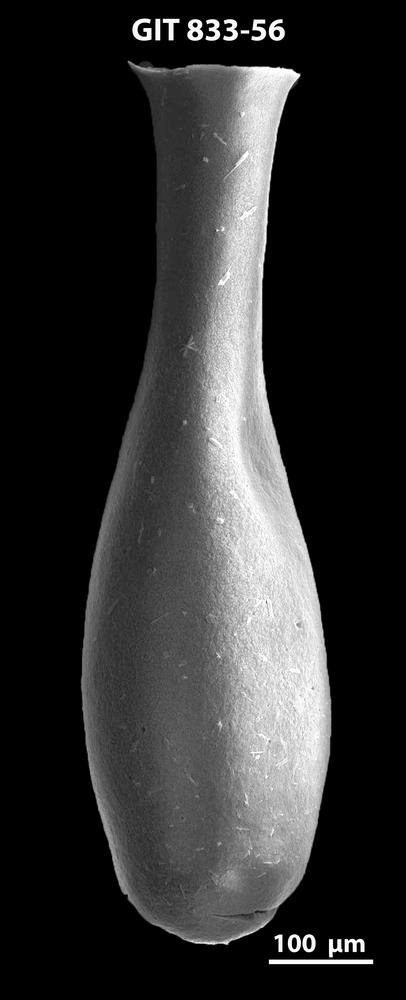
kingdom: Animalia
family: Lagenochitinidae
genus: Lagenochitina
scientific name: Lagenochitina megaesthonica
